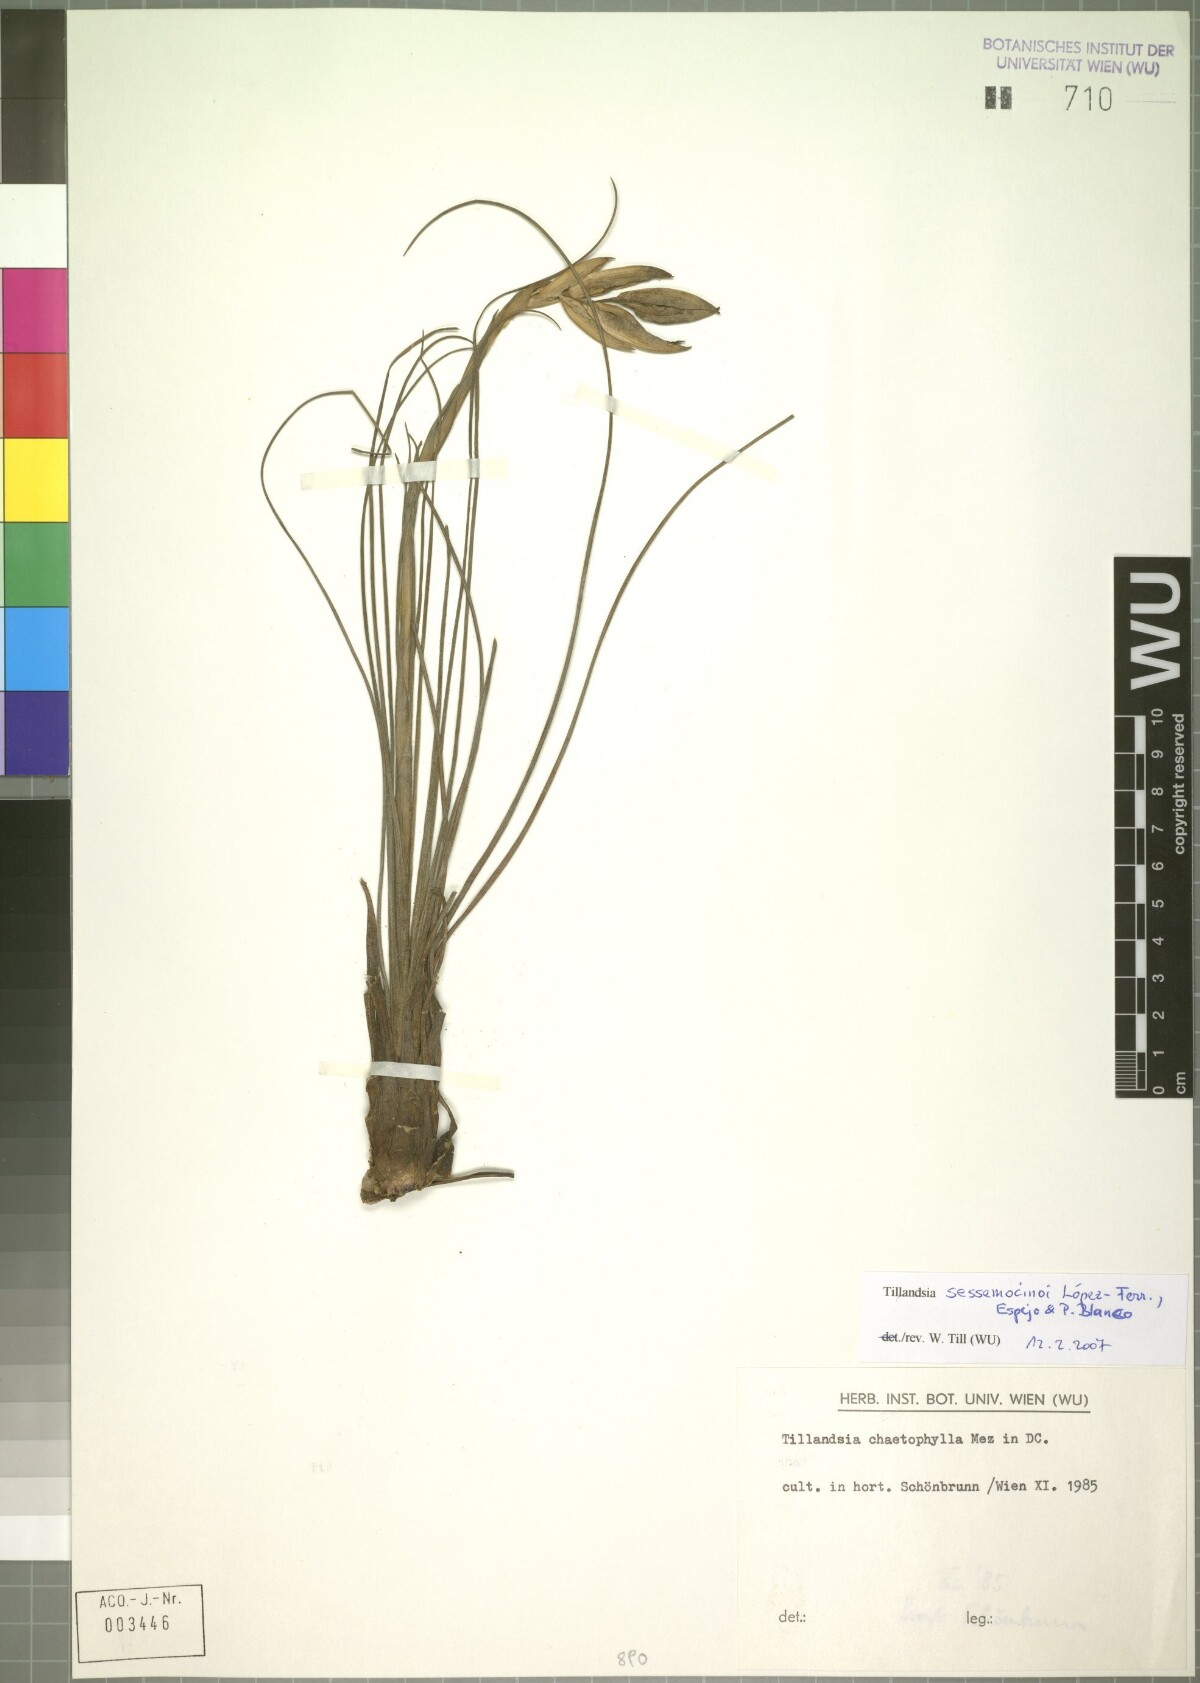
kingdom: Plantae
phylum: Tracheophyta
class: Liliopsida
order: Poales
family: Bromeliaceae
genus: Tillandsia
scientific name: Tillandsia sessemocinoi
